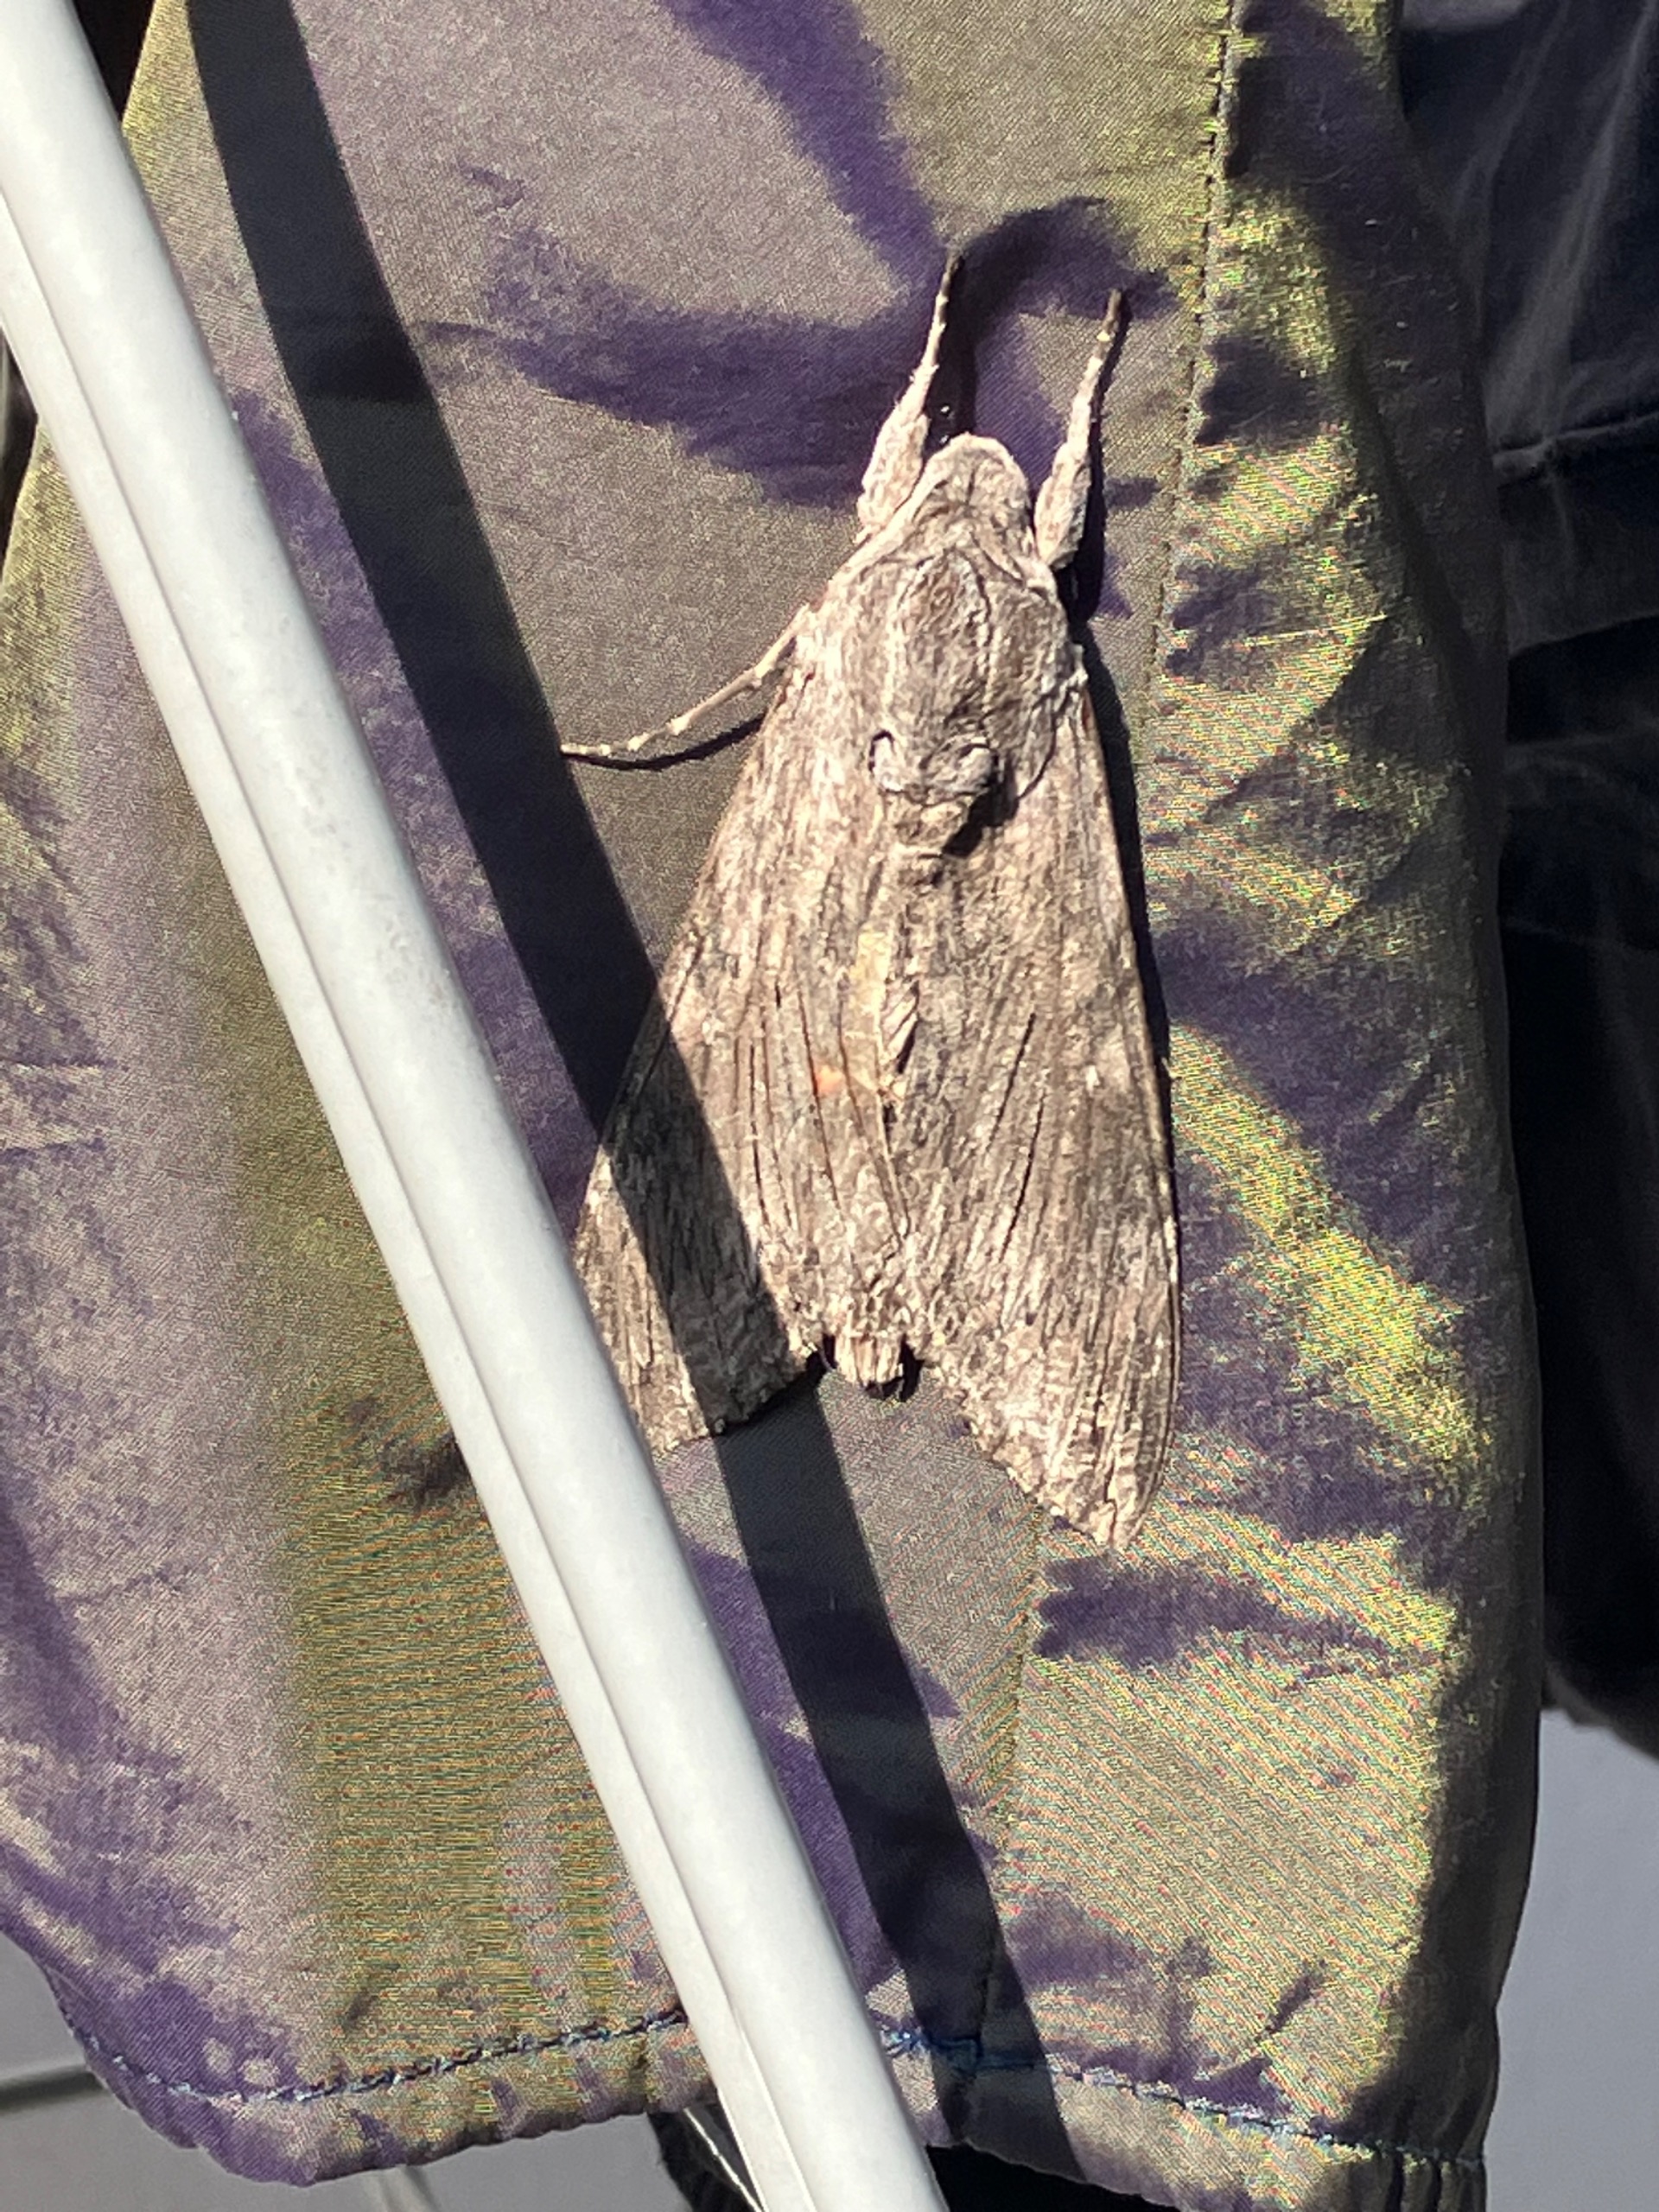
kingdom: Animalia
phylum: Arthropoda
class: Insecta
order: Lepidoptera
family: Sphingidae
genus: Agrius
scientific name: Agrius convolvuli
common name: Snerlesværmer
